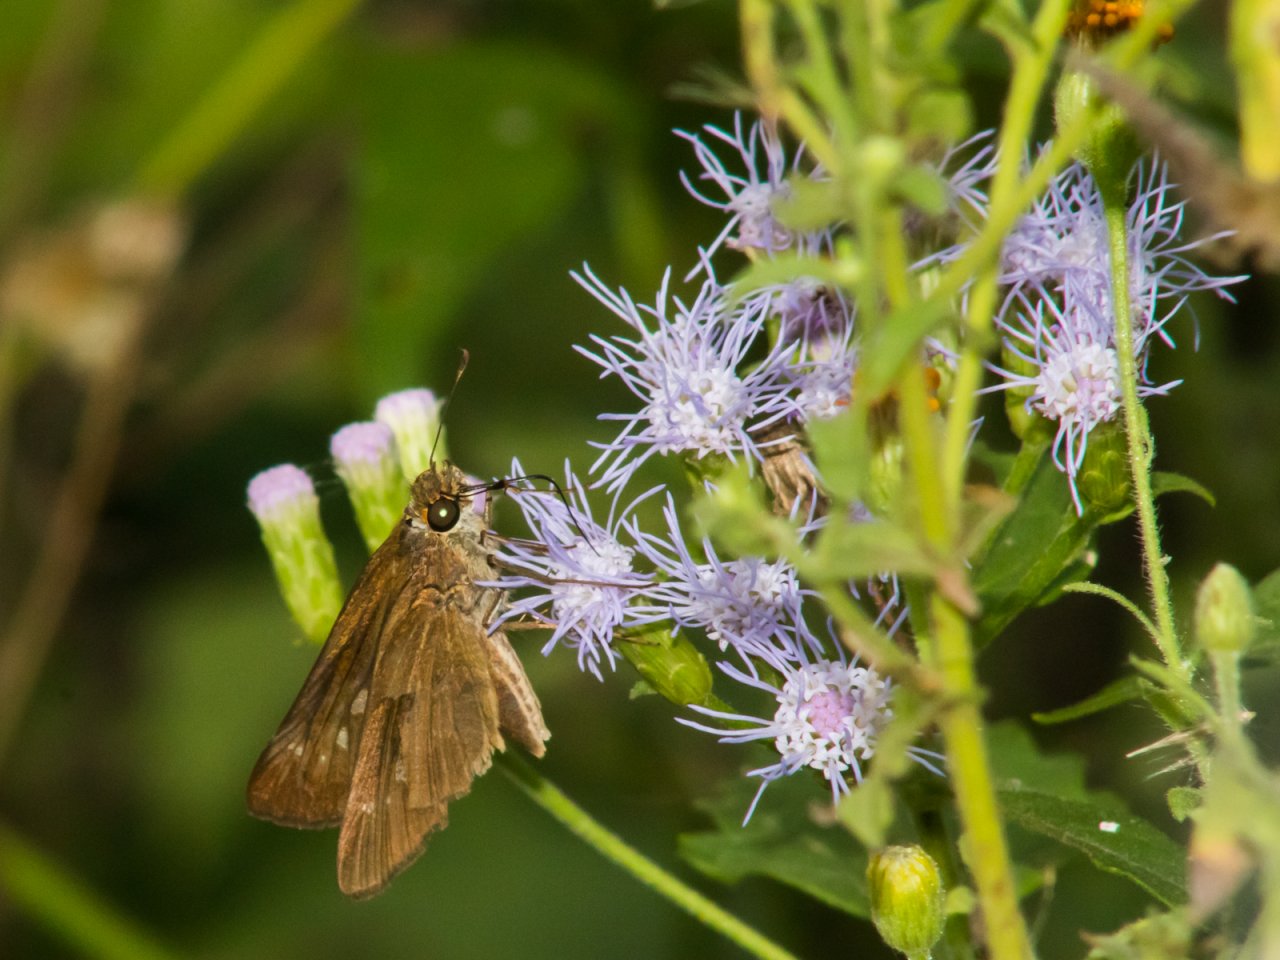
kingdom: Animalia
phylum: Arthropoda
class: Insecta
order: Lepidoptera
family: Hesperiidae
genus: Panoquina
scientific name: Panoquina ocola
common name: Ocola Skipper
